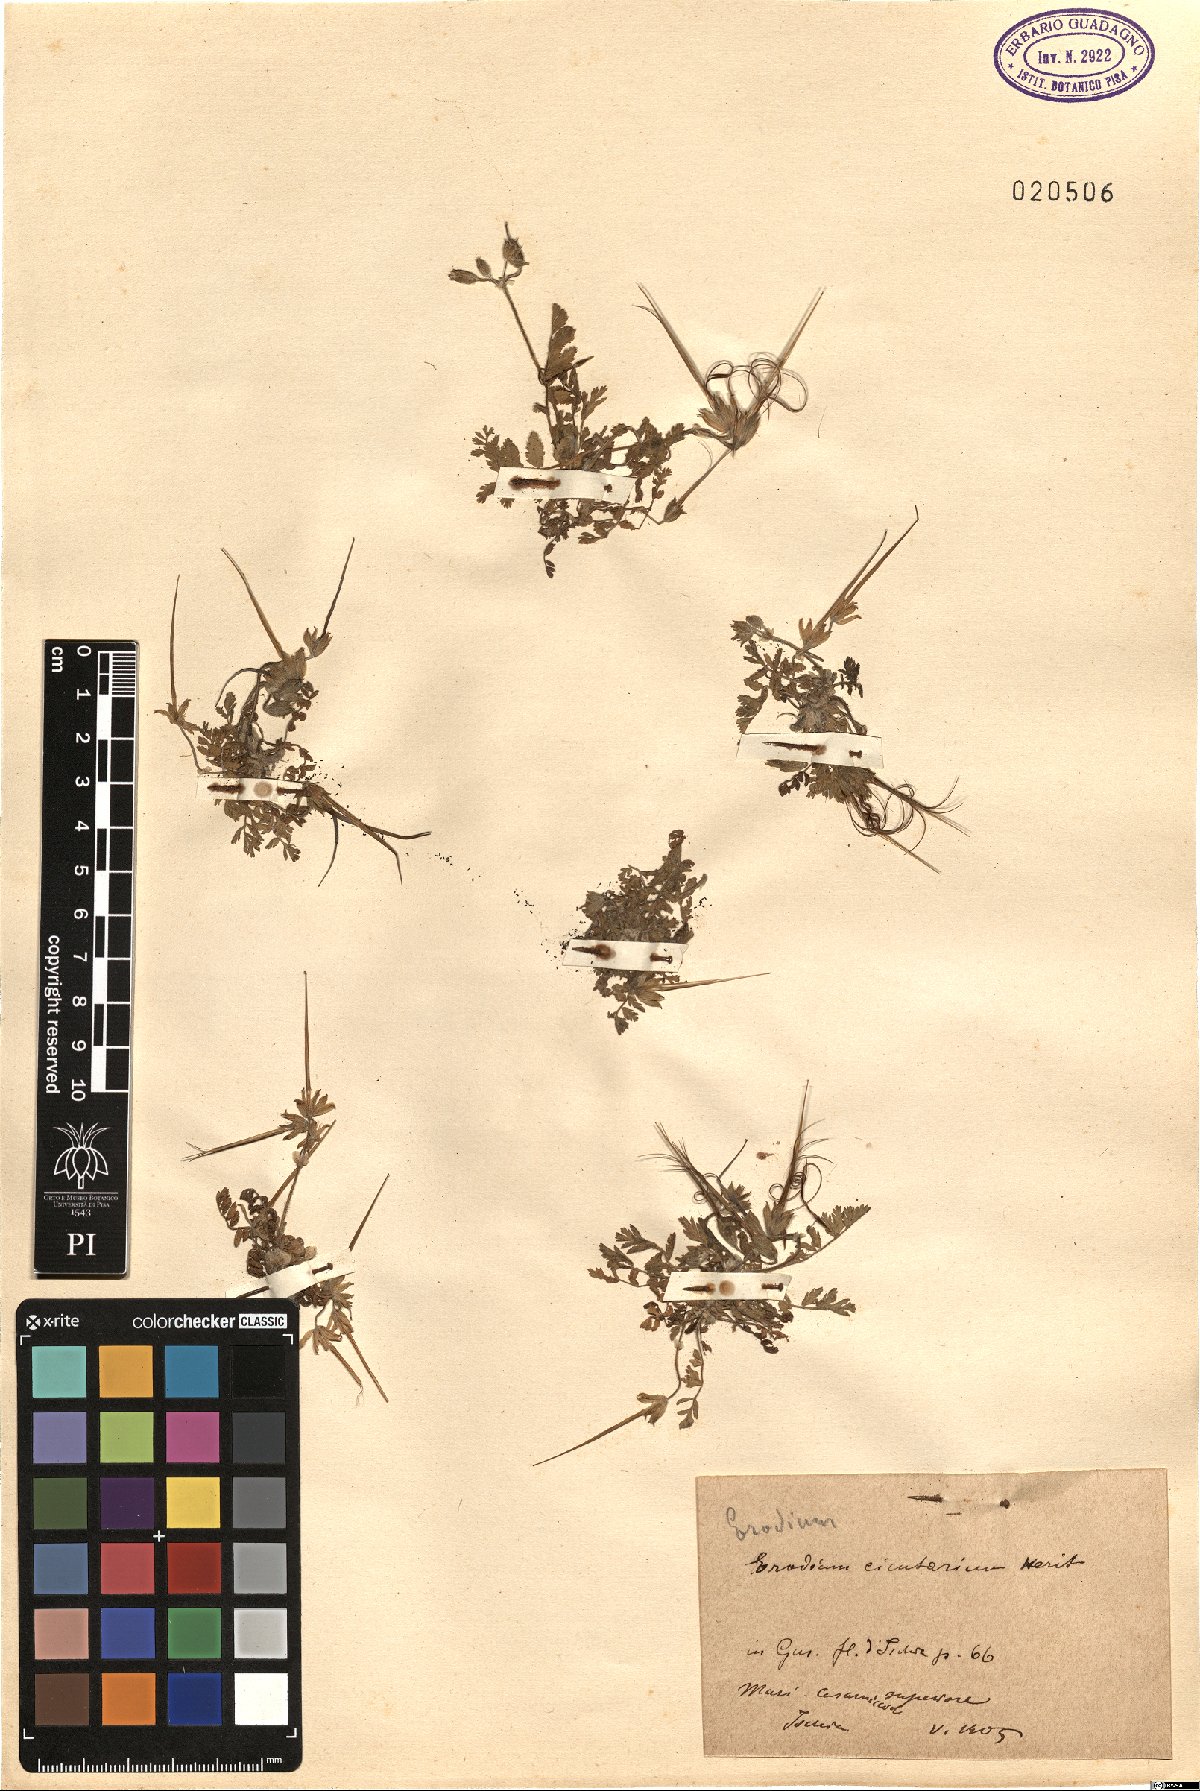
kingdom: Plantae
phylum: Tracheophyta
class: Magnoliopsida
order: Geraniales
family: Geraniaceae
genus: Erodium
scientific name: Erodium cicutarium
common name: Common stork's-bill
